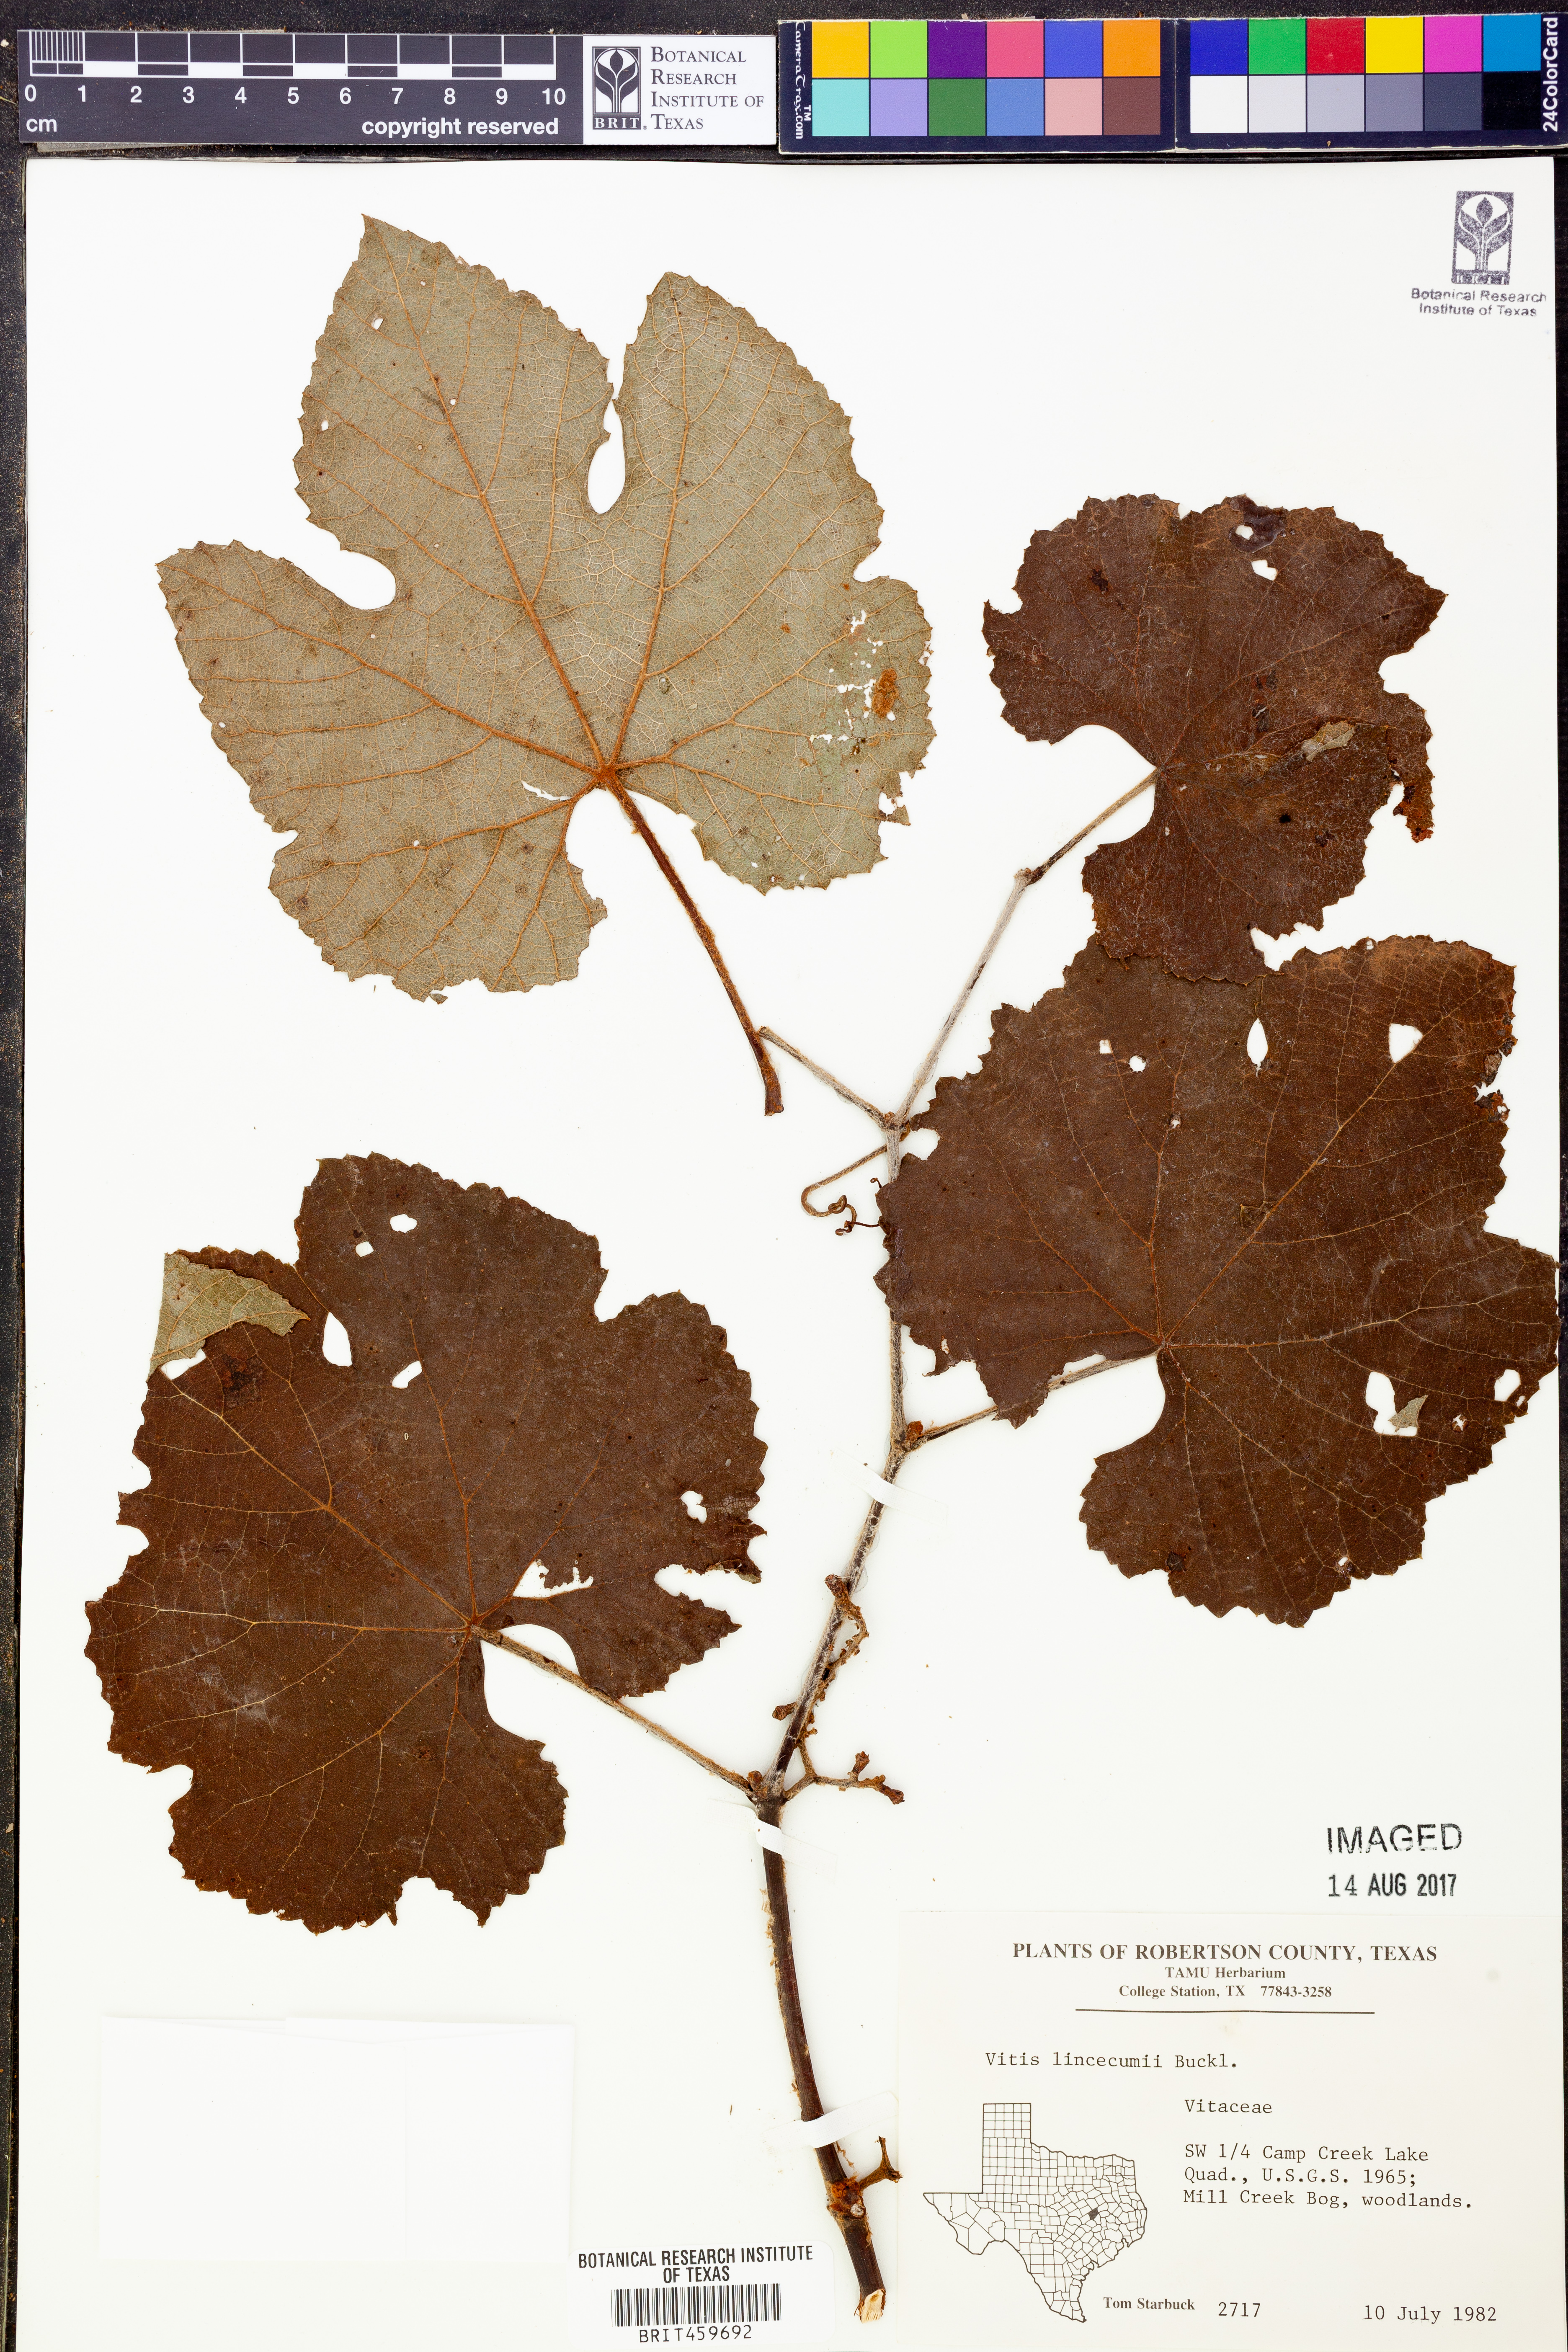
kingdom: Plantae
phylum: Tracheophyta
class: Magnoliopsida
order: Vitales
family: Vitaceae
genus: Vitis
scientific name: Vitis aestivalis
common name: Pigeon grape
